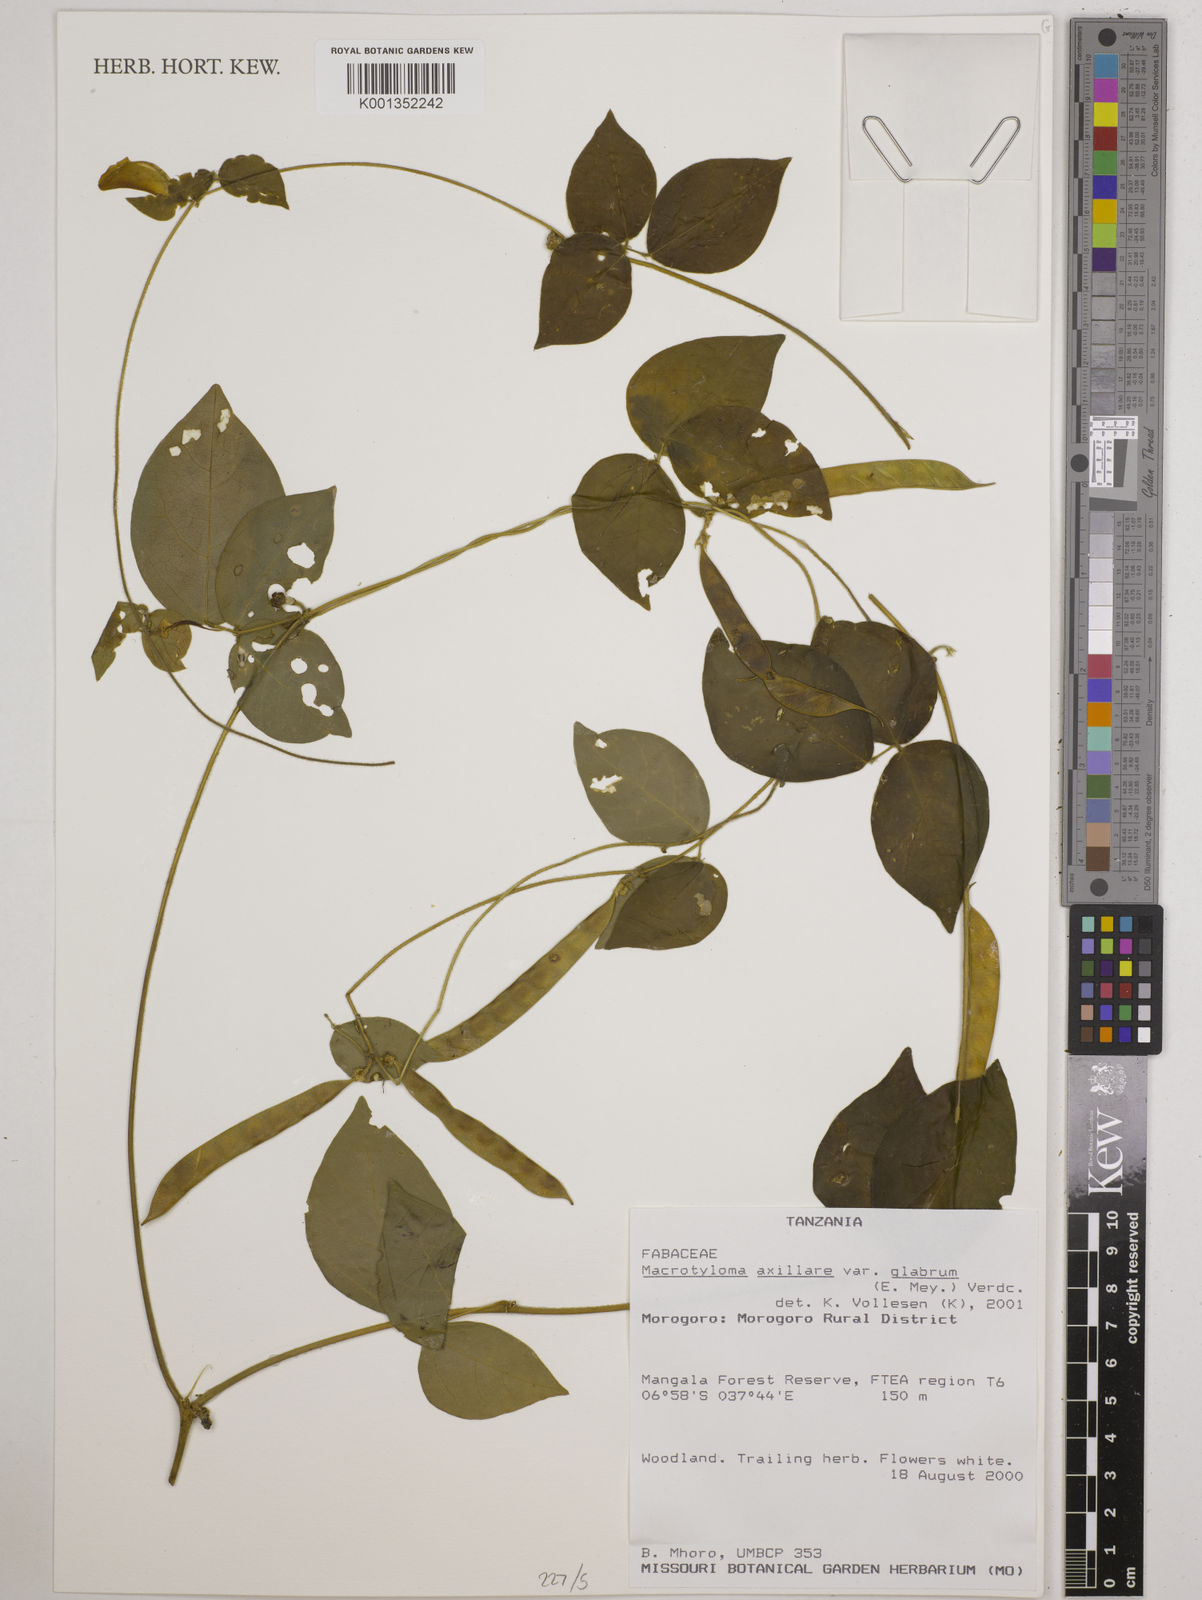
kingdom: Plantae
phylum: Tracheophyta
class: Magnoliopsida
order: Fabales
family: Fabaceae
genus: Macrotyloma
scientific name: Macrotyloma
